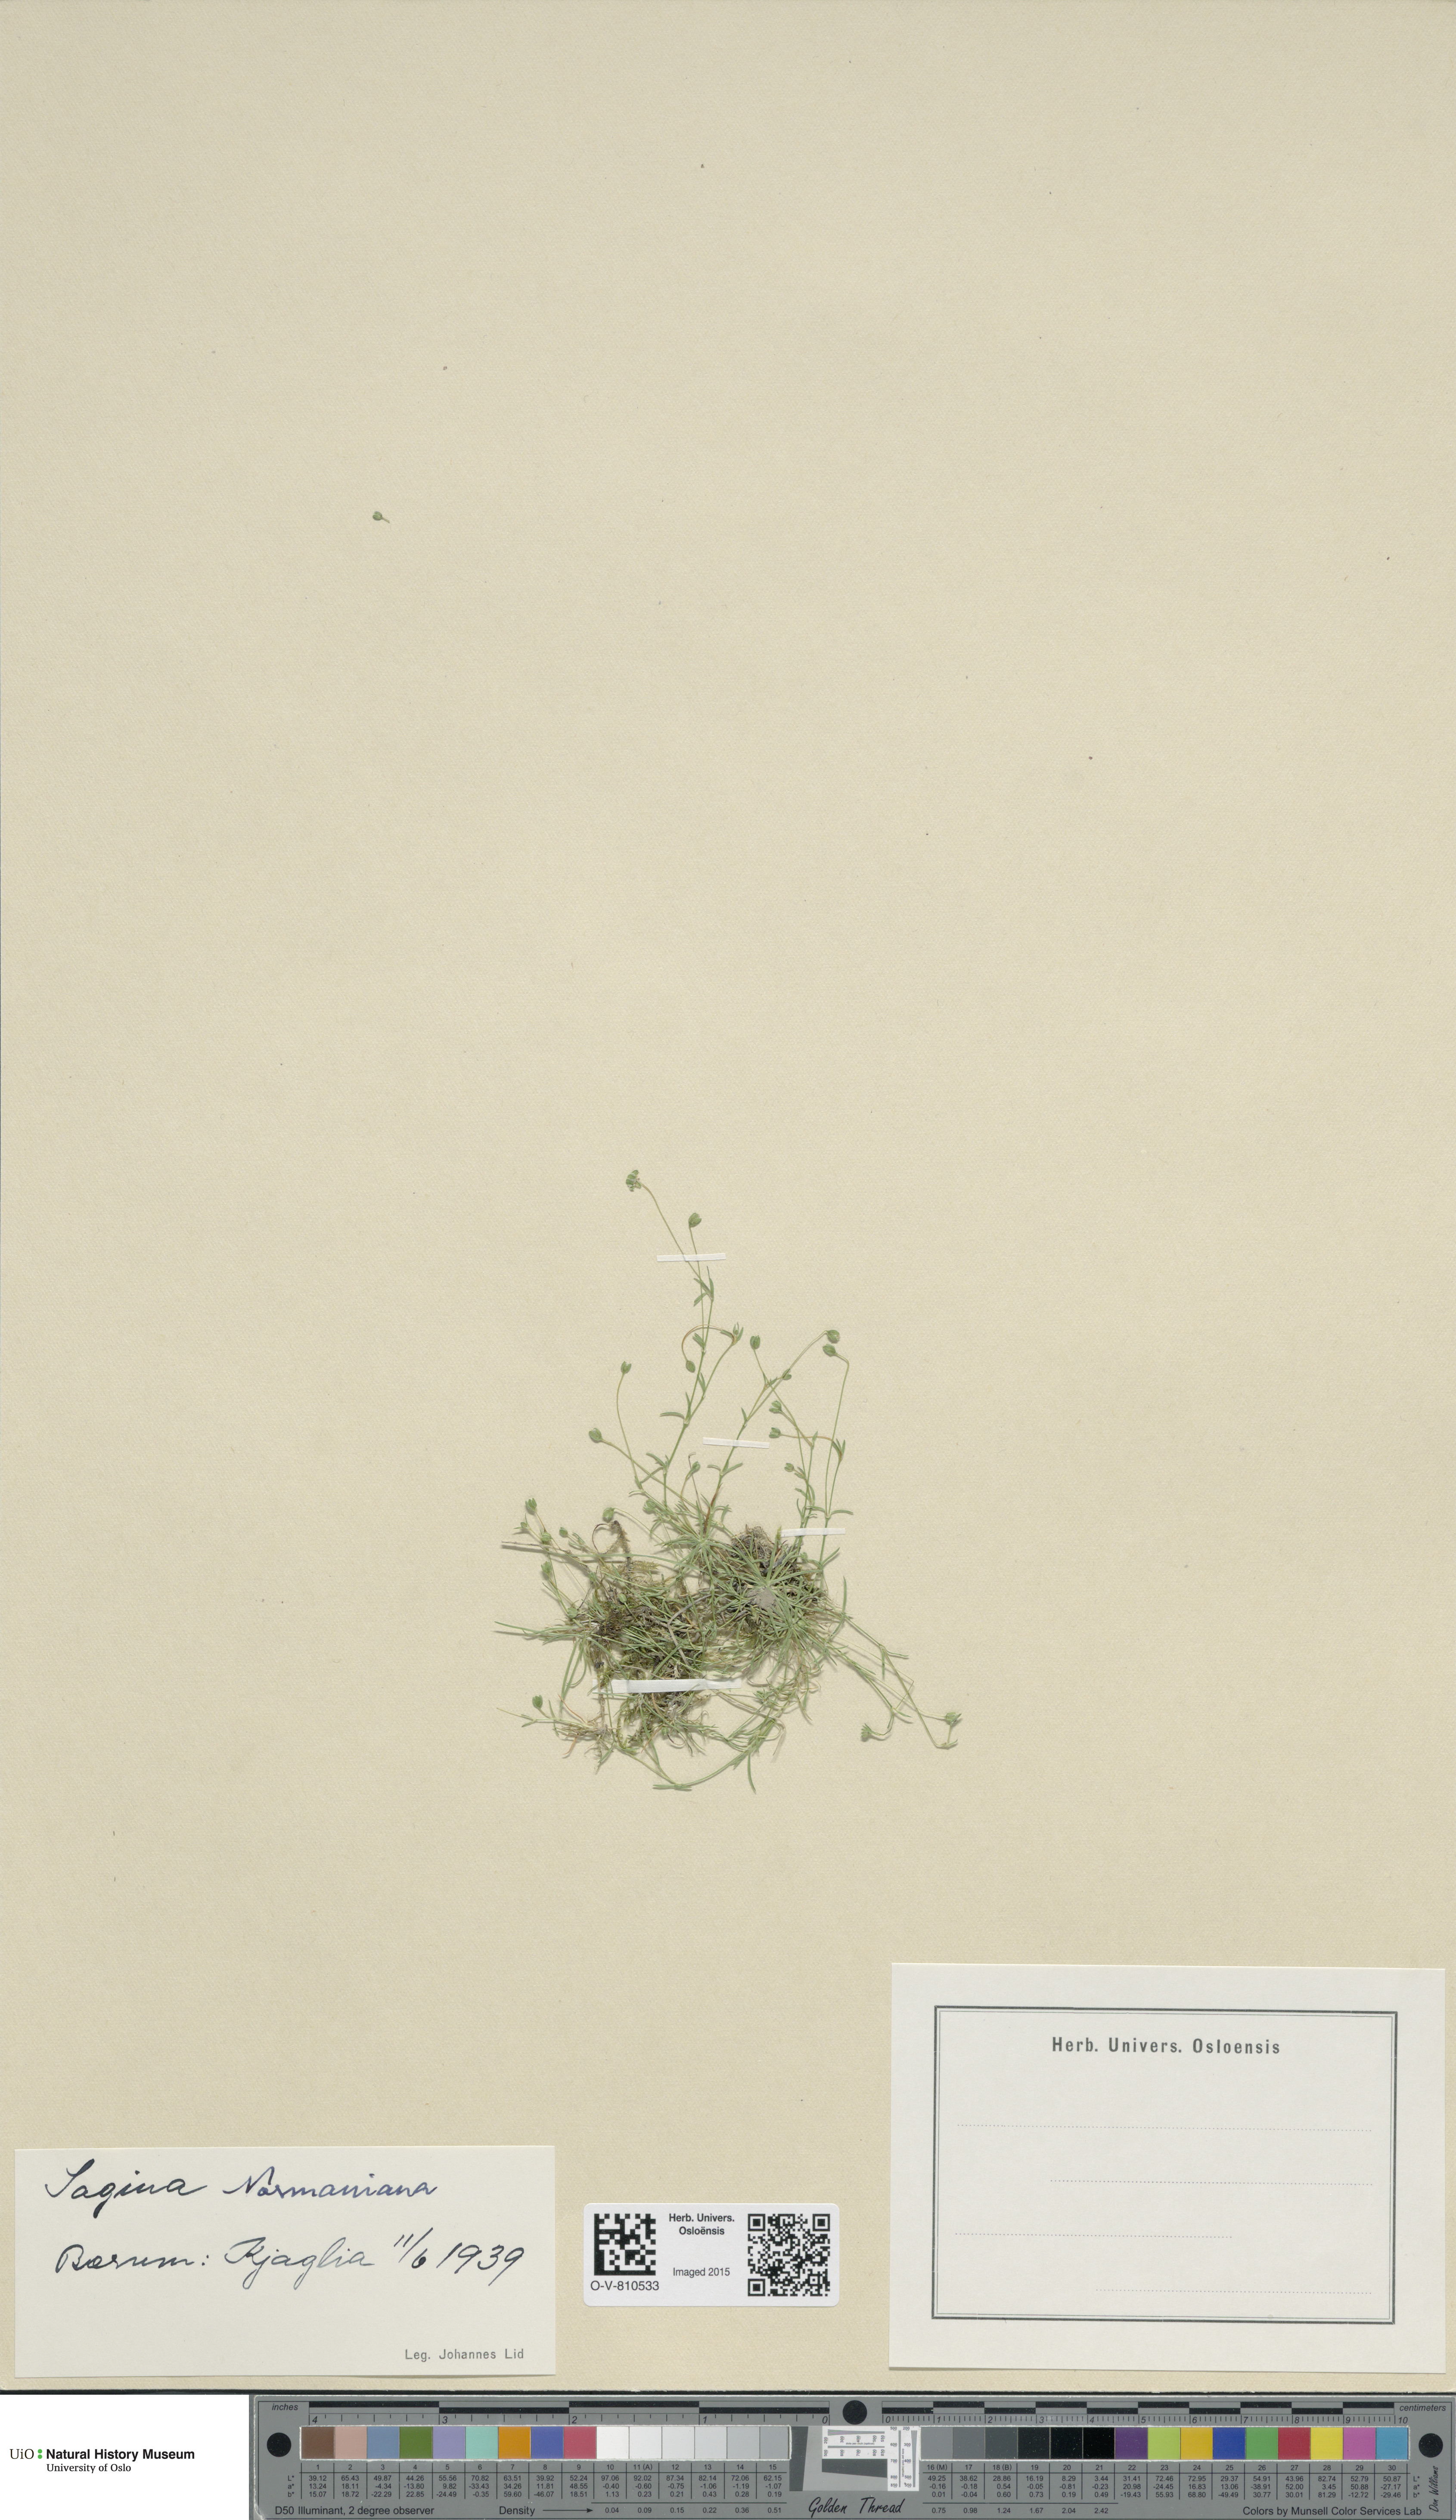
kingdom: Plantae
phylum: Tracheophyta
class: Magnoliopsida
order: Caryophyllales
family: Caryophyllaceae
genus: Sagina
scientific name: Sagina media
